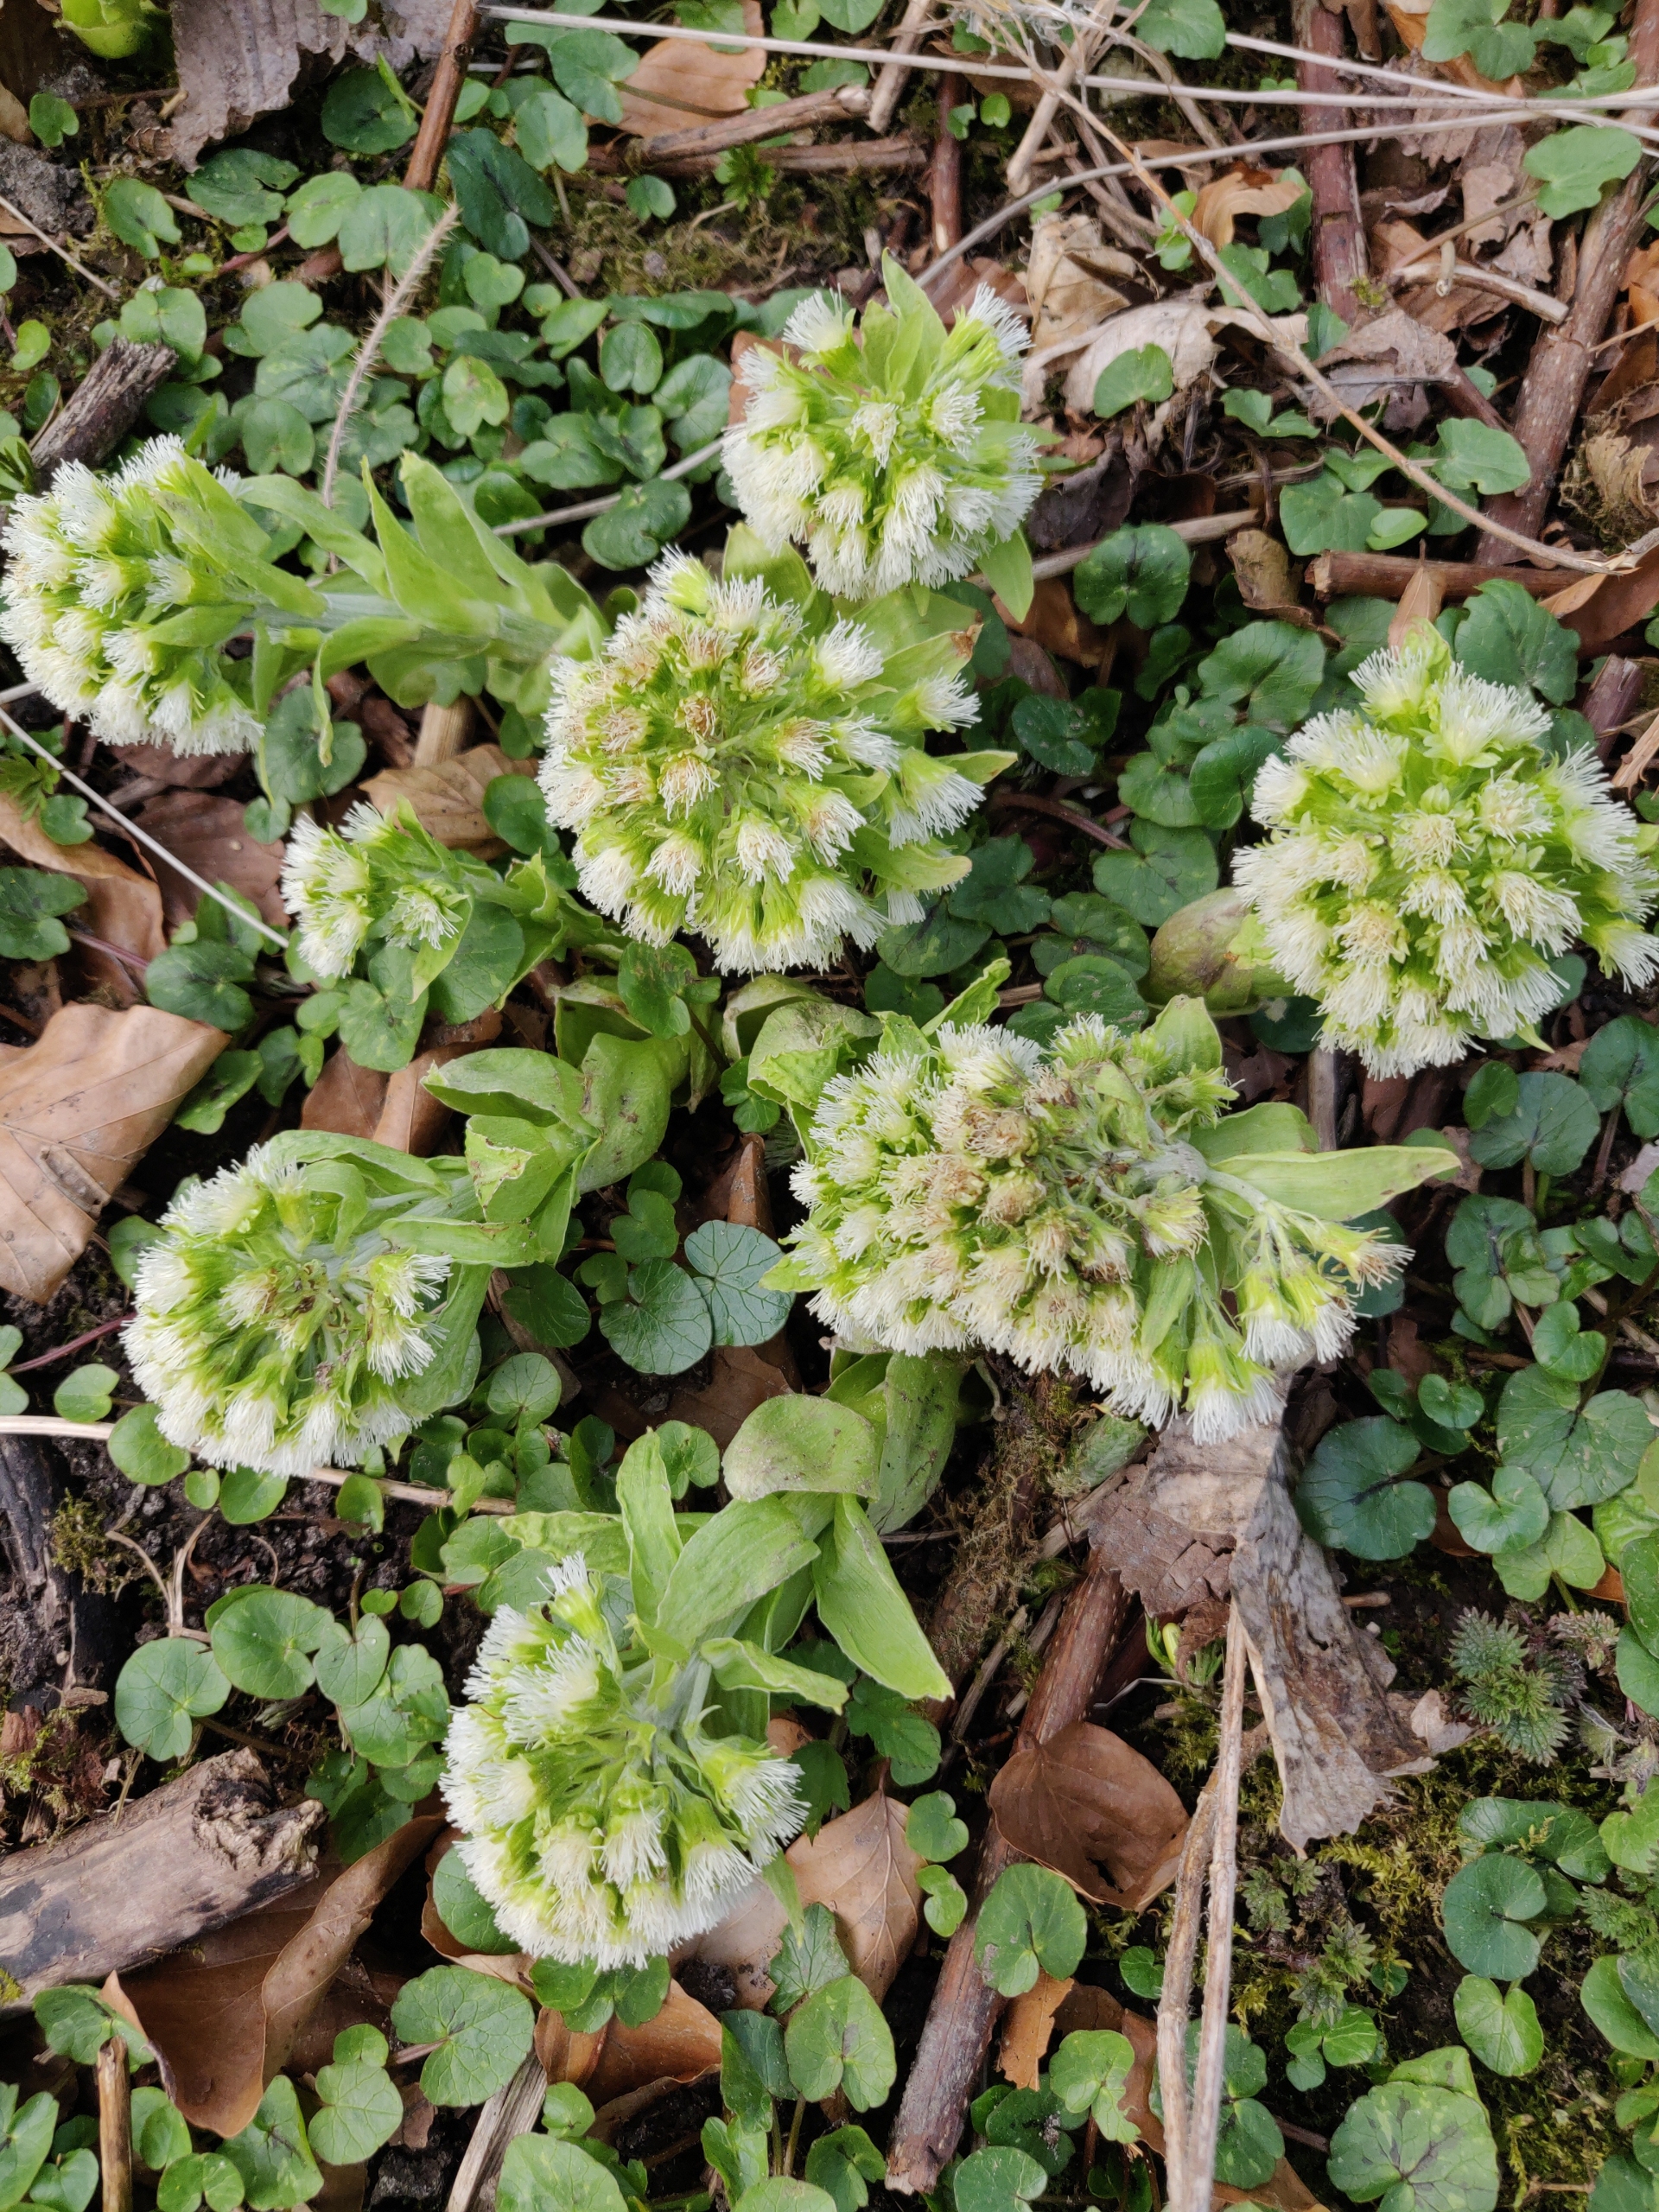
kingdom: Plantae
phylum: Tracheophyta
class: Magnoliopsida
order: Asterales
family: Asteraceae
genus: Petasites
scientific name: Petasites albus
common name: Hvid hestehov
